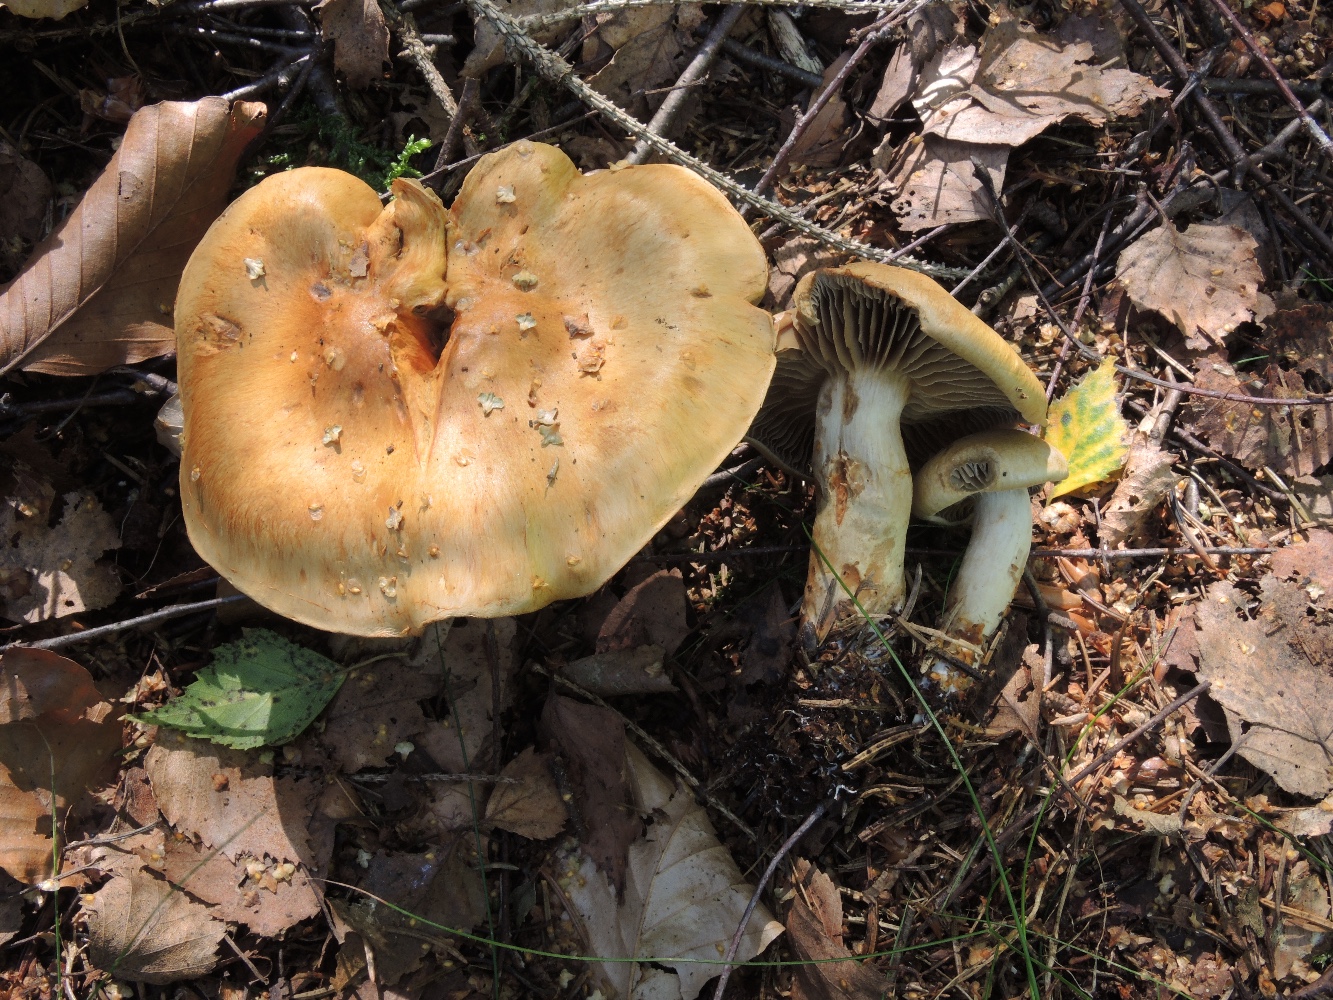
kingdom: Fungi
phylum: Basidiomycota
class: Agaricomycetes
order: Agaricales
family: Cortinariaceae
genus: Cortinarius
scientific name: Cortinarius subtortus
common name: olivengul slørhat
